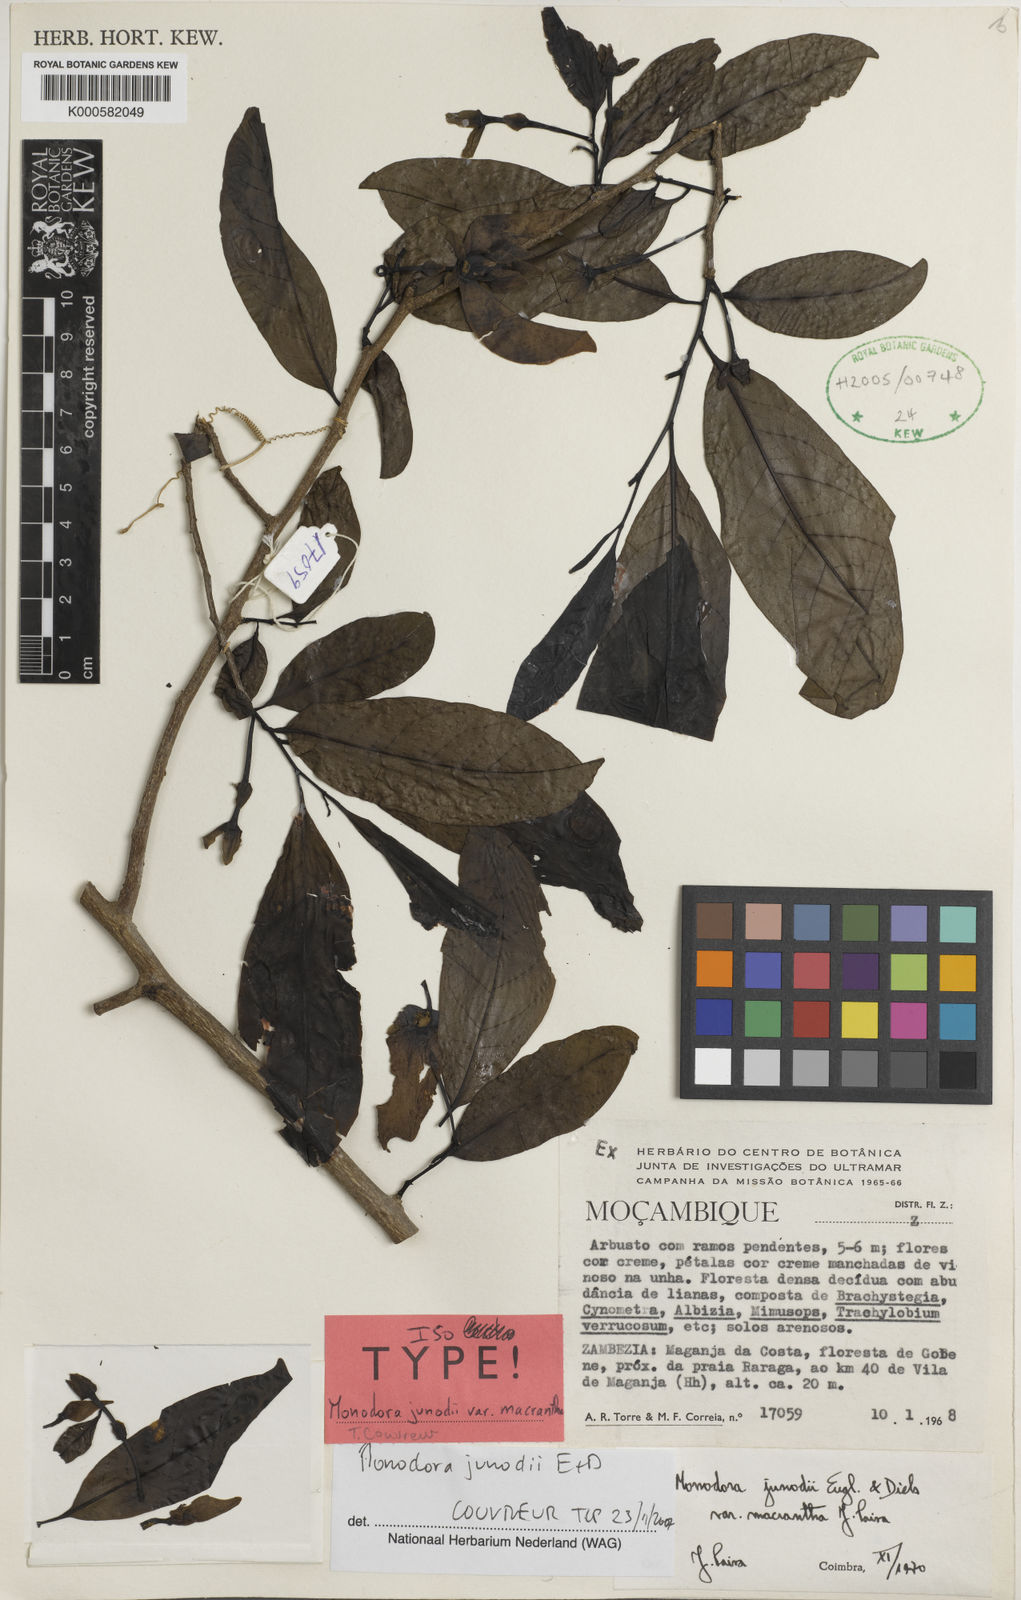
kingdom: Plantae
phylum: Tracheophyta
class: Magnoliopsida
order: Magnoliales
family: Annonaceae
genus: Monodora
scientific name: Monodora junodii
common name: Green-apple
